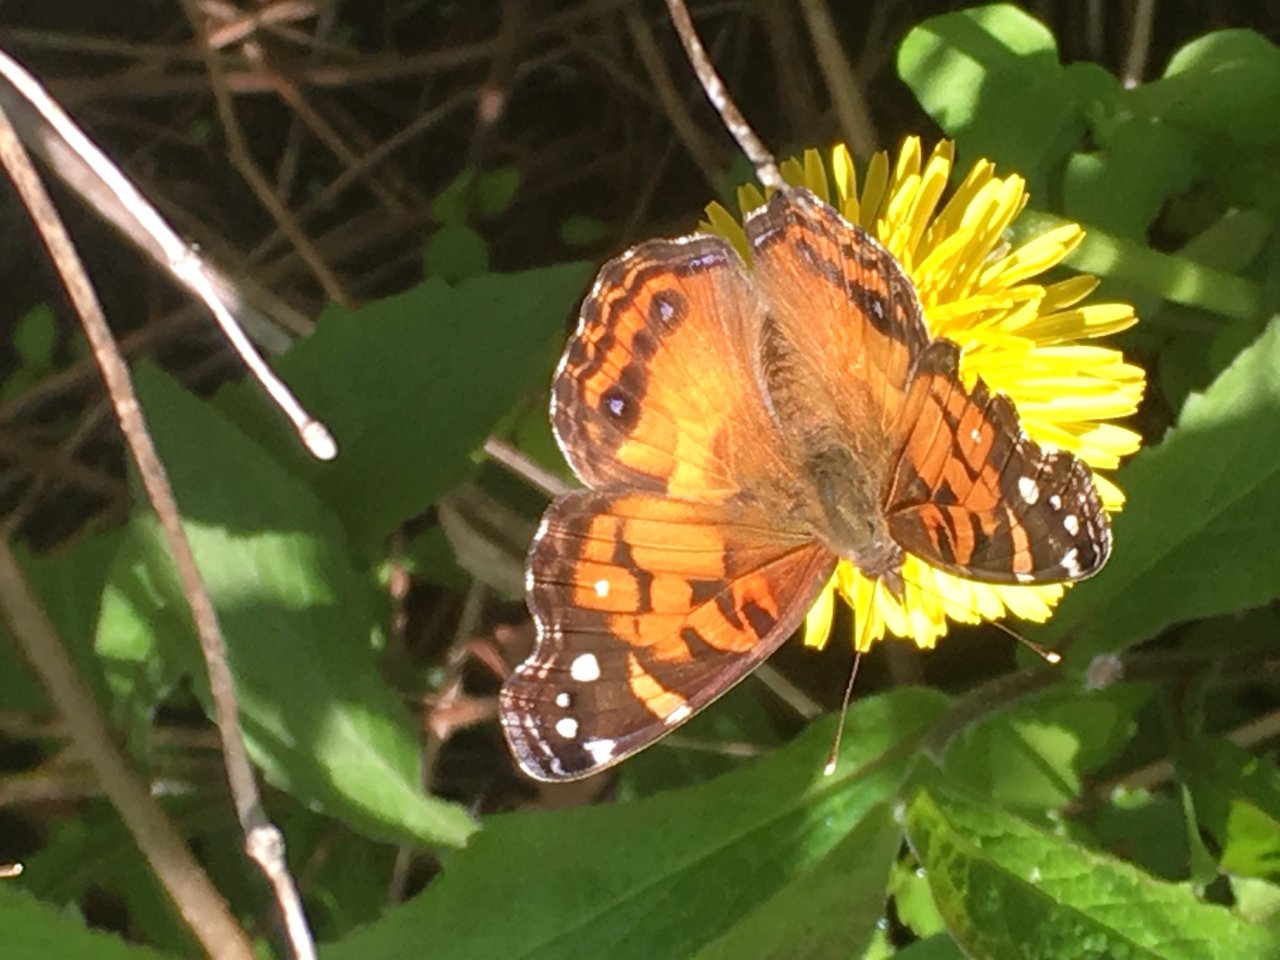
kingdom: Animalia
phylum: Arthropoda
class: Insecta
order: Lepidoptera
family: Nymphalidae
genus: Vanessa
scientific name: Vanessa virginiensis
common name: American Lady
